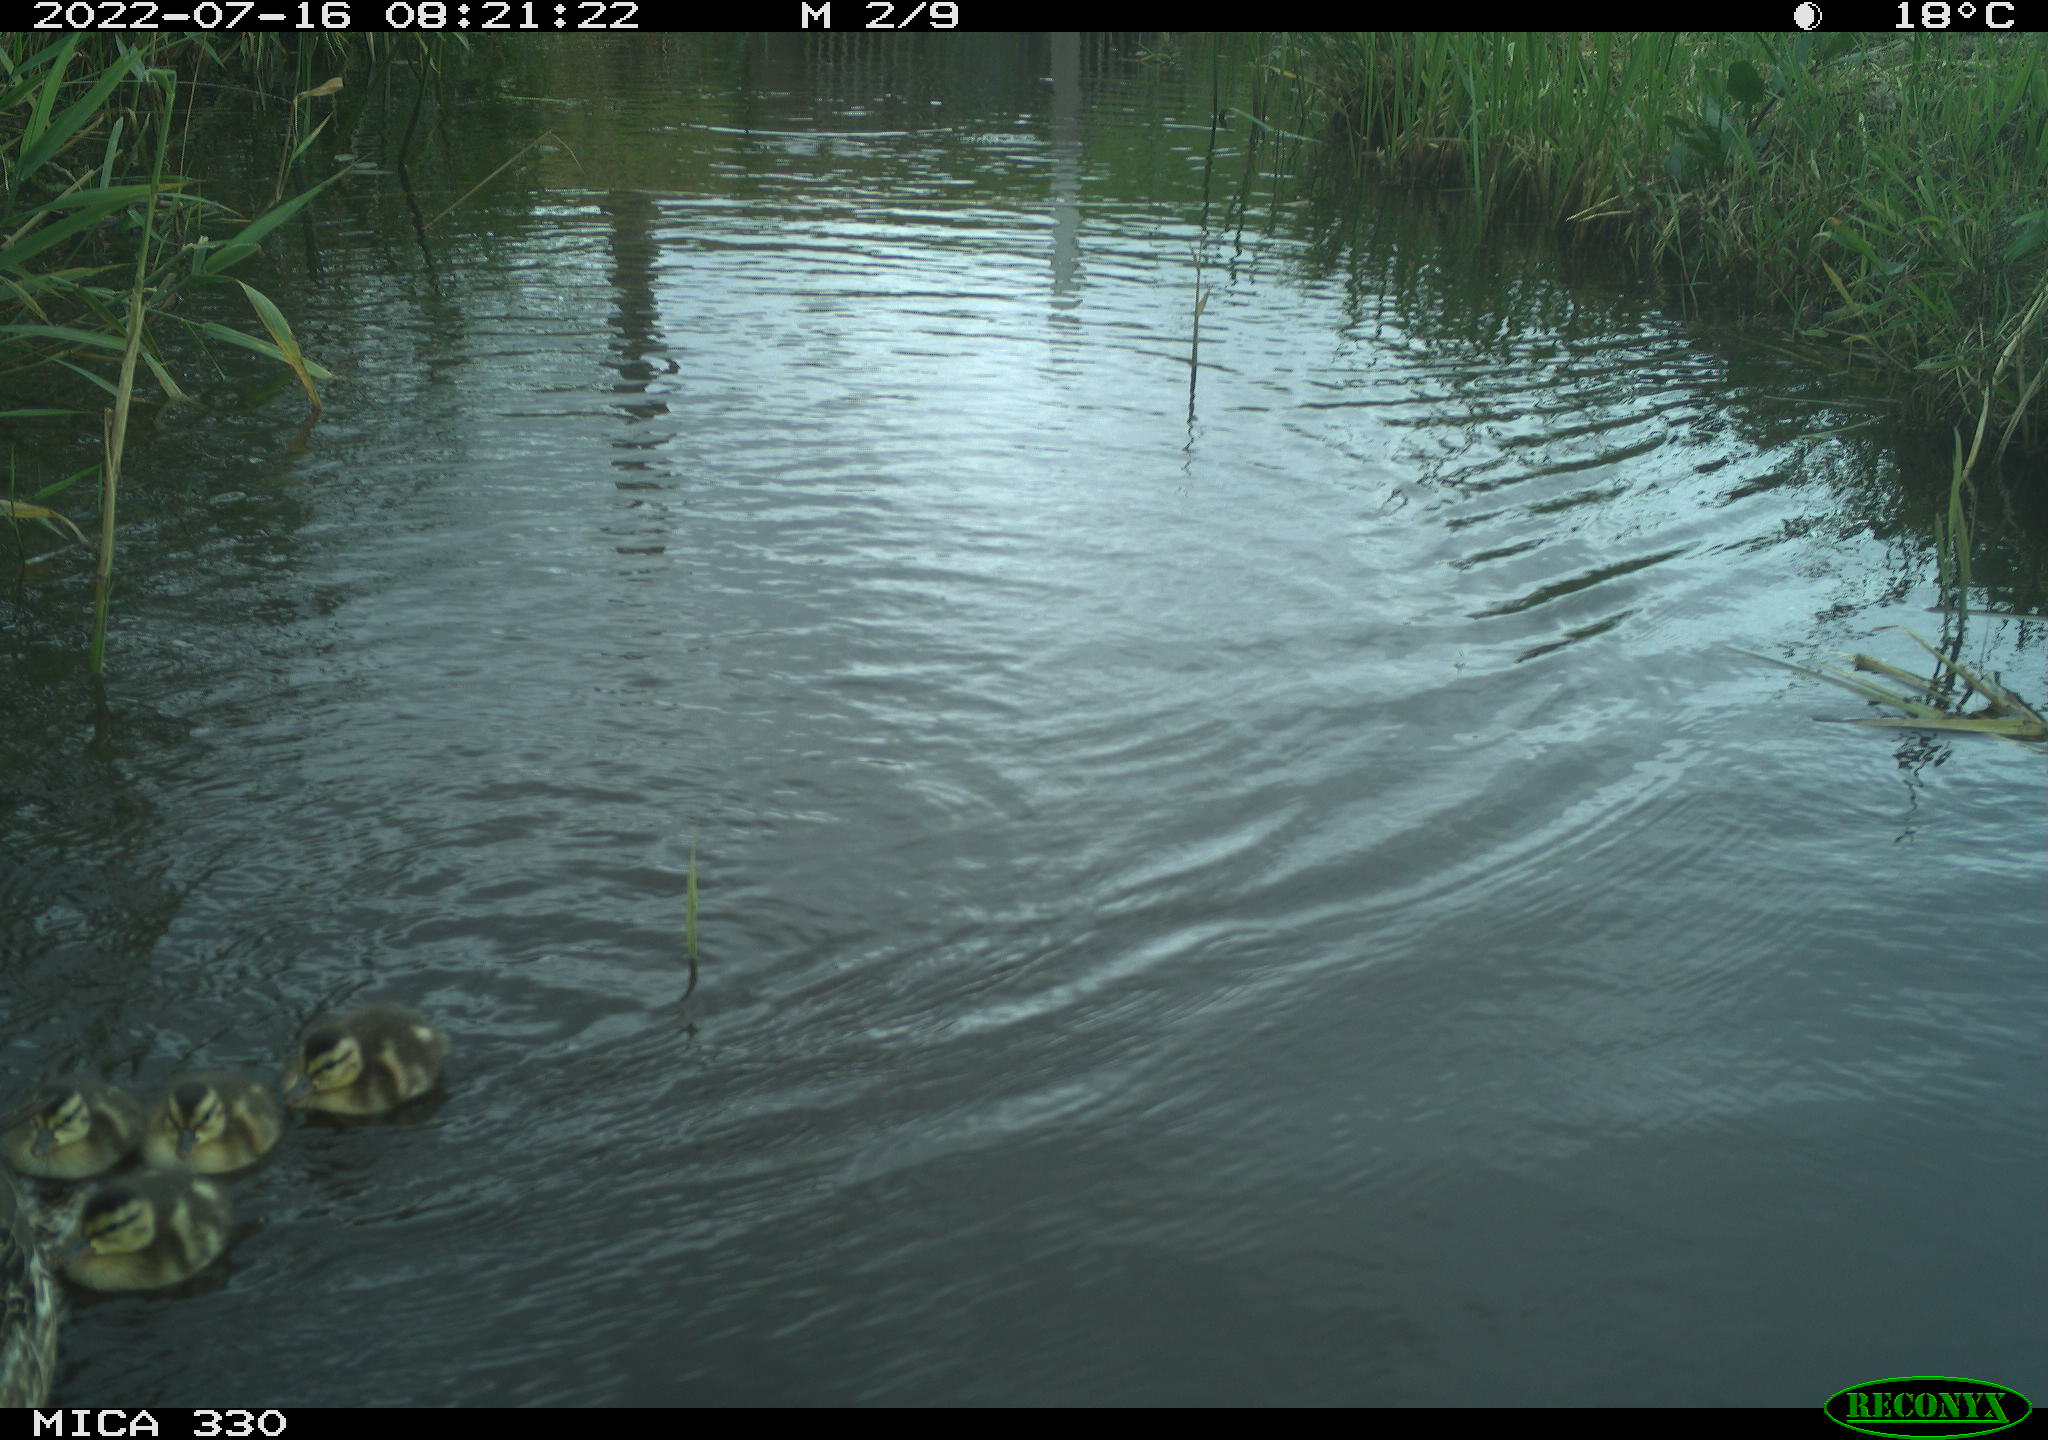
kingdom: Animalia
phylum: Chordata
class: Aves
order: Anseriformes
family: Anatidae
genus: Mareca
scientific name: Mareca strepera
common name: Gadwall
